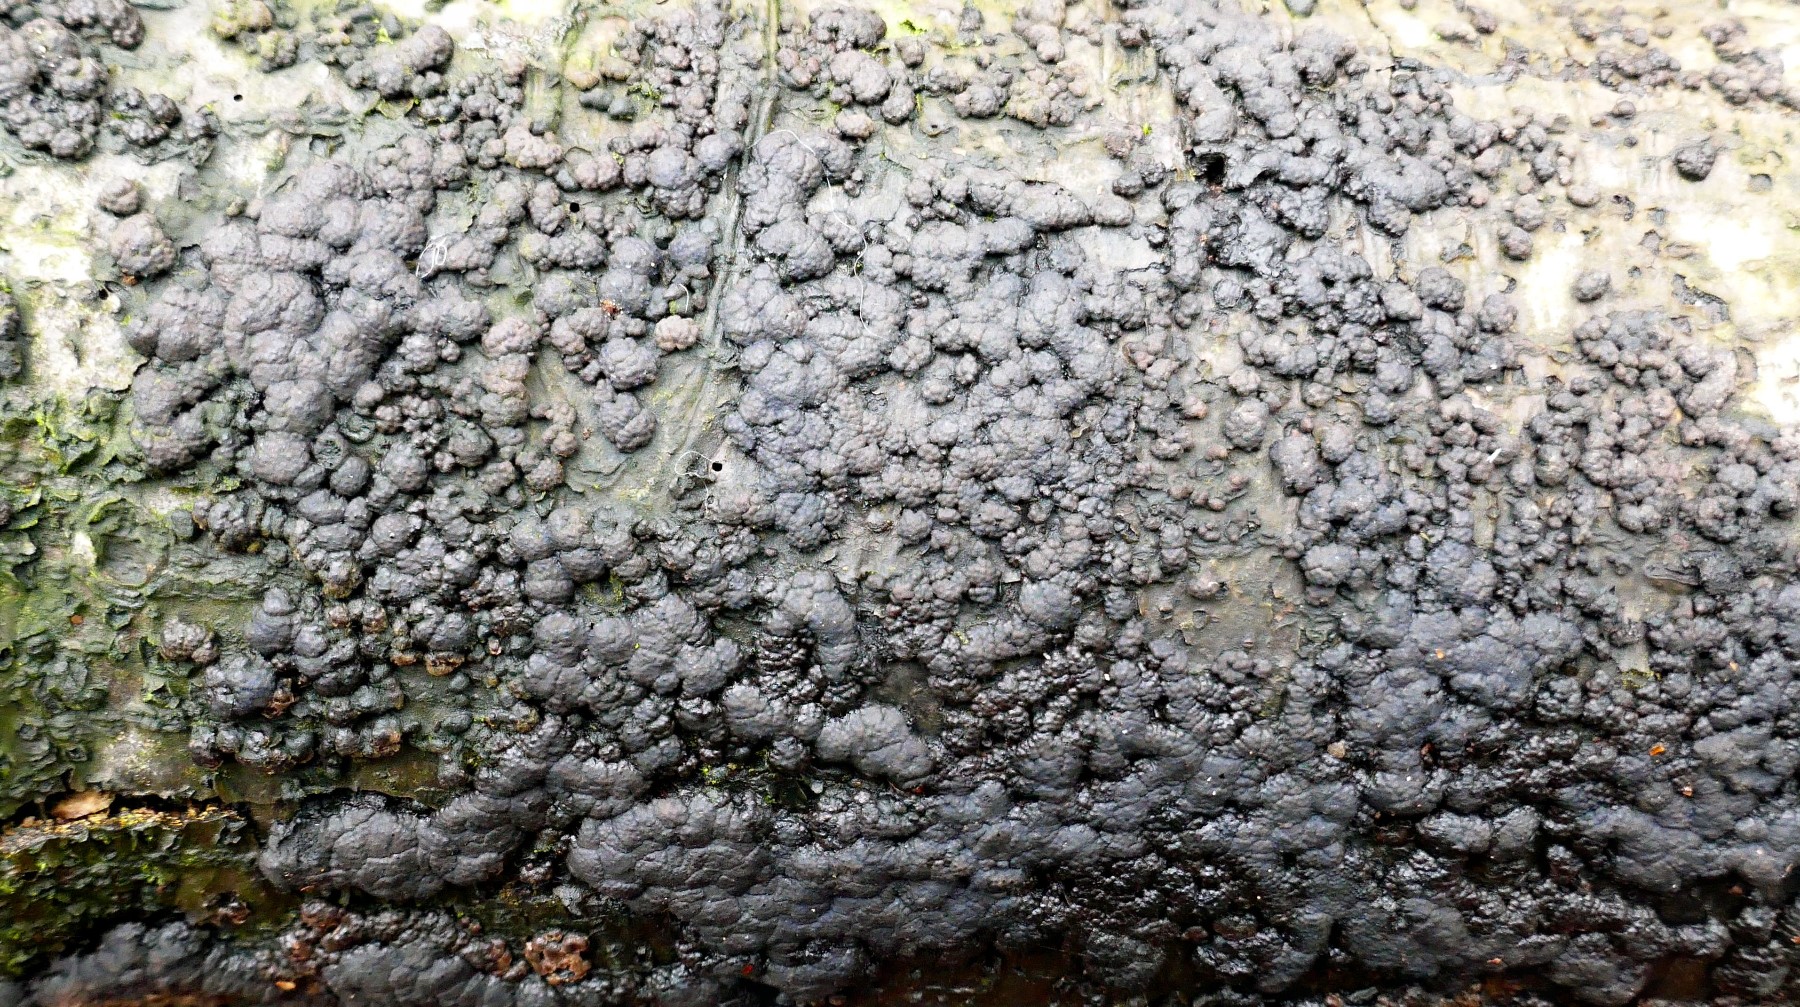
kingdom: Fungi
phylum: Ascomycota
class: Sordariomycetes
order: Xylariales
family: Hypoxylaceae
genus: Jackrogersella
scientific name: Jackrogersella cohaerens
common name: sammenflydende kulbær
